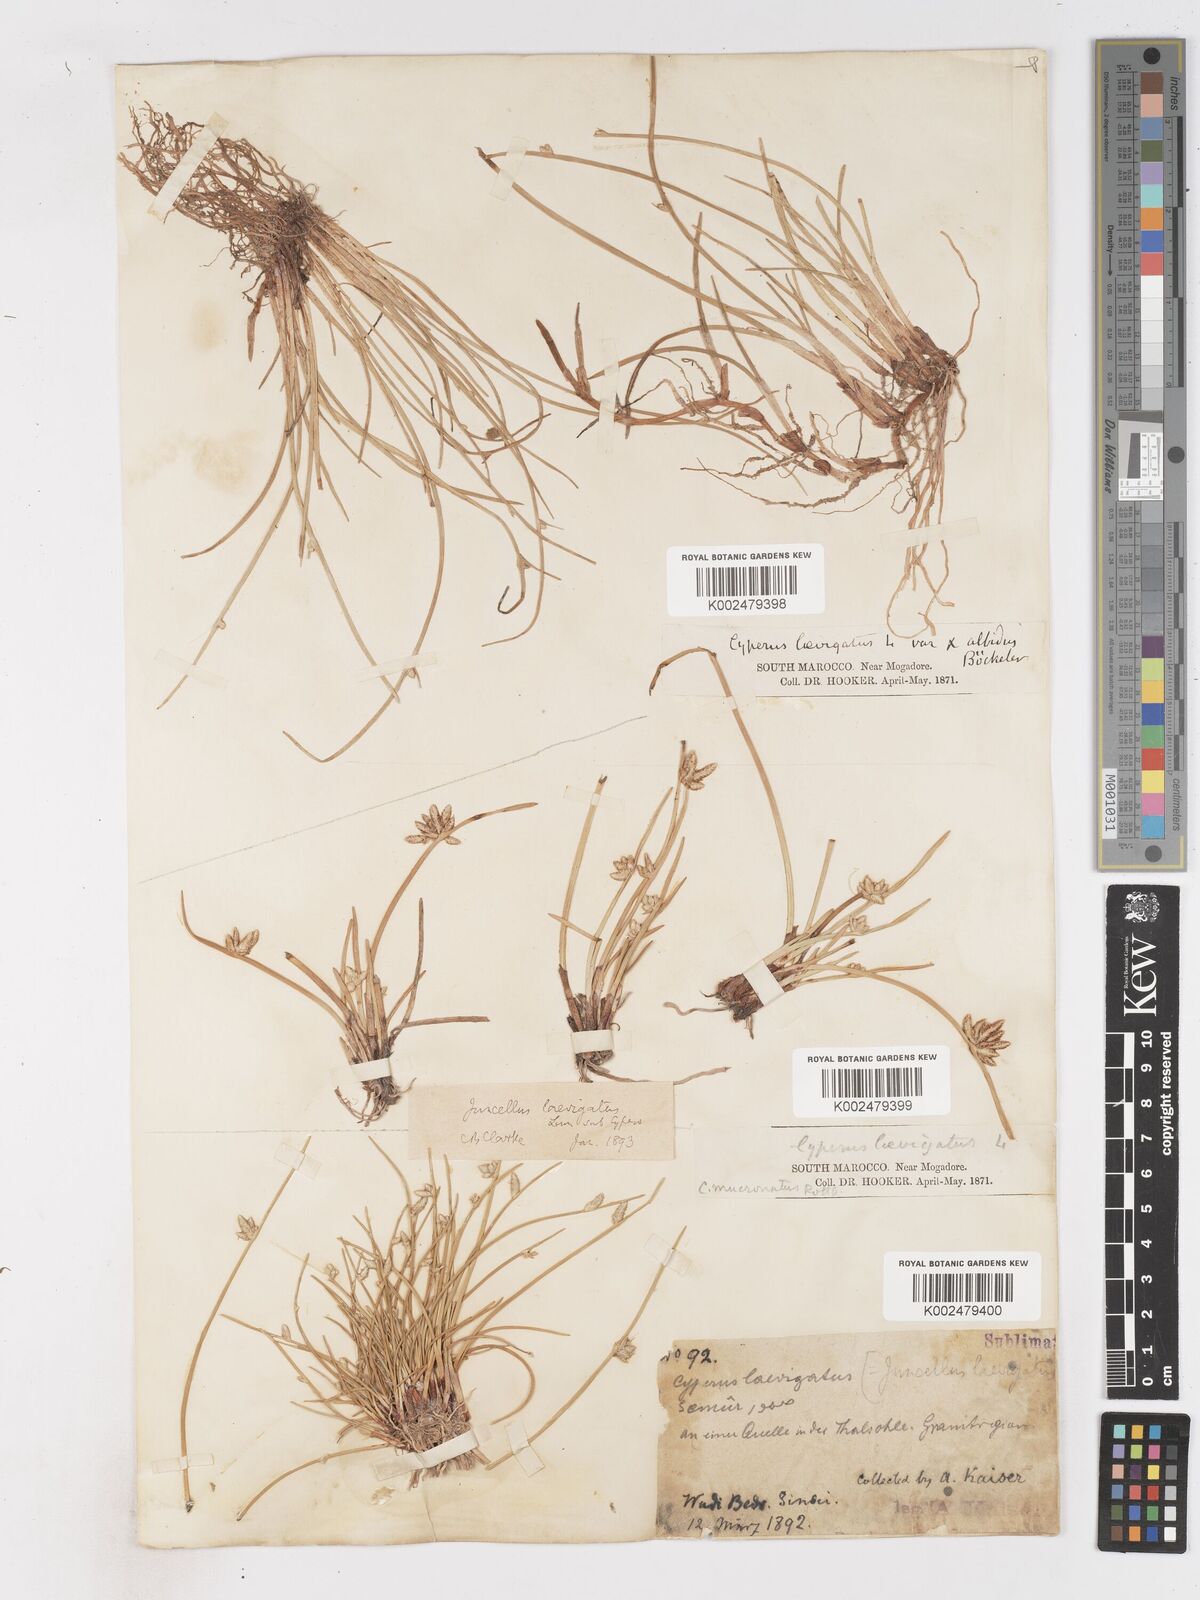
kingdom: Plantae
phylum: Tracheophyta
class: Liliopsida
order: Poales
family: Cyperaceae
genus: Cyperus
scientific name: Cyperus laevigatus
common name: Smooth flat sedge
